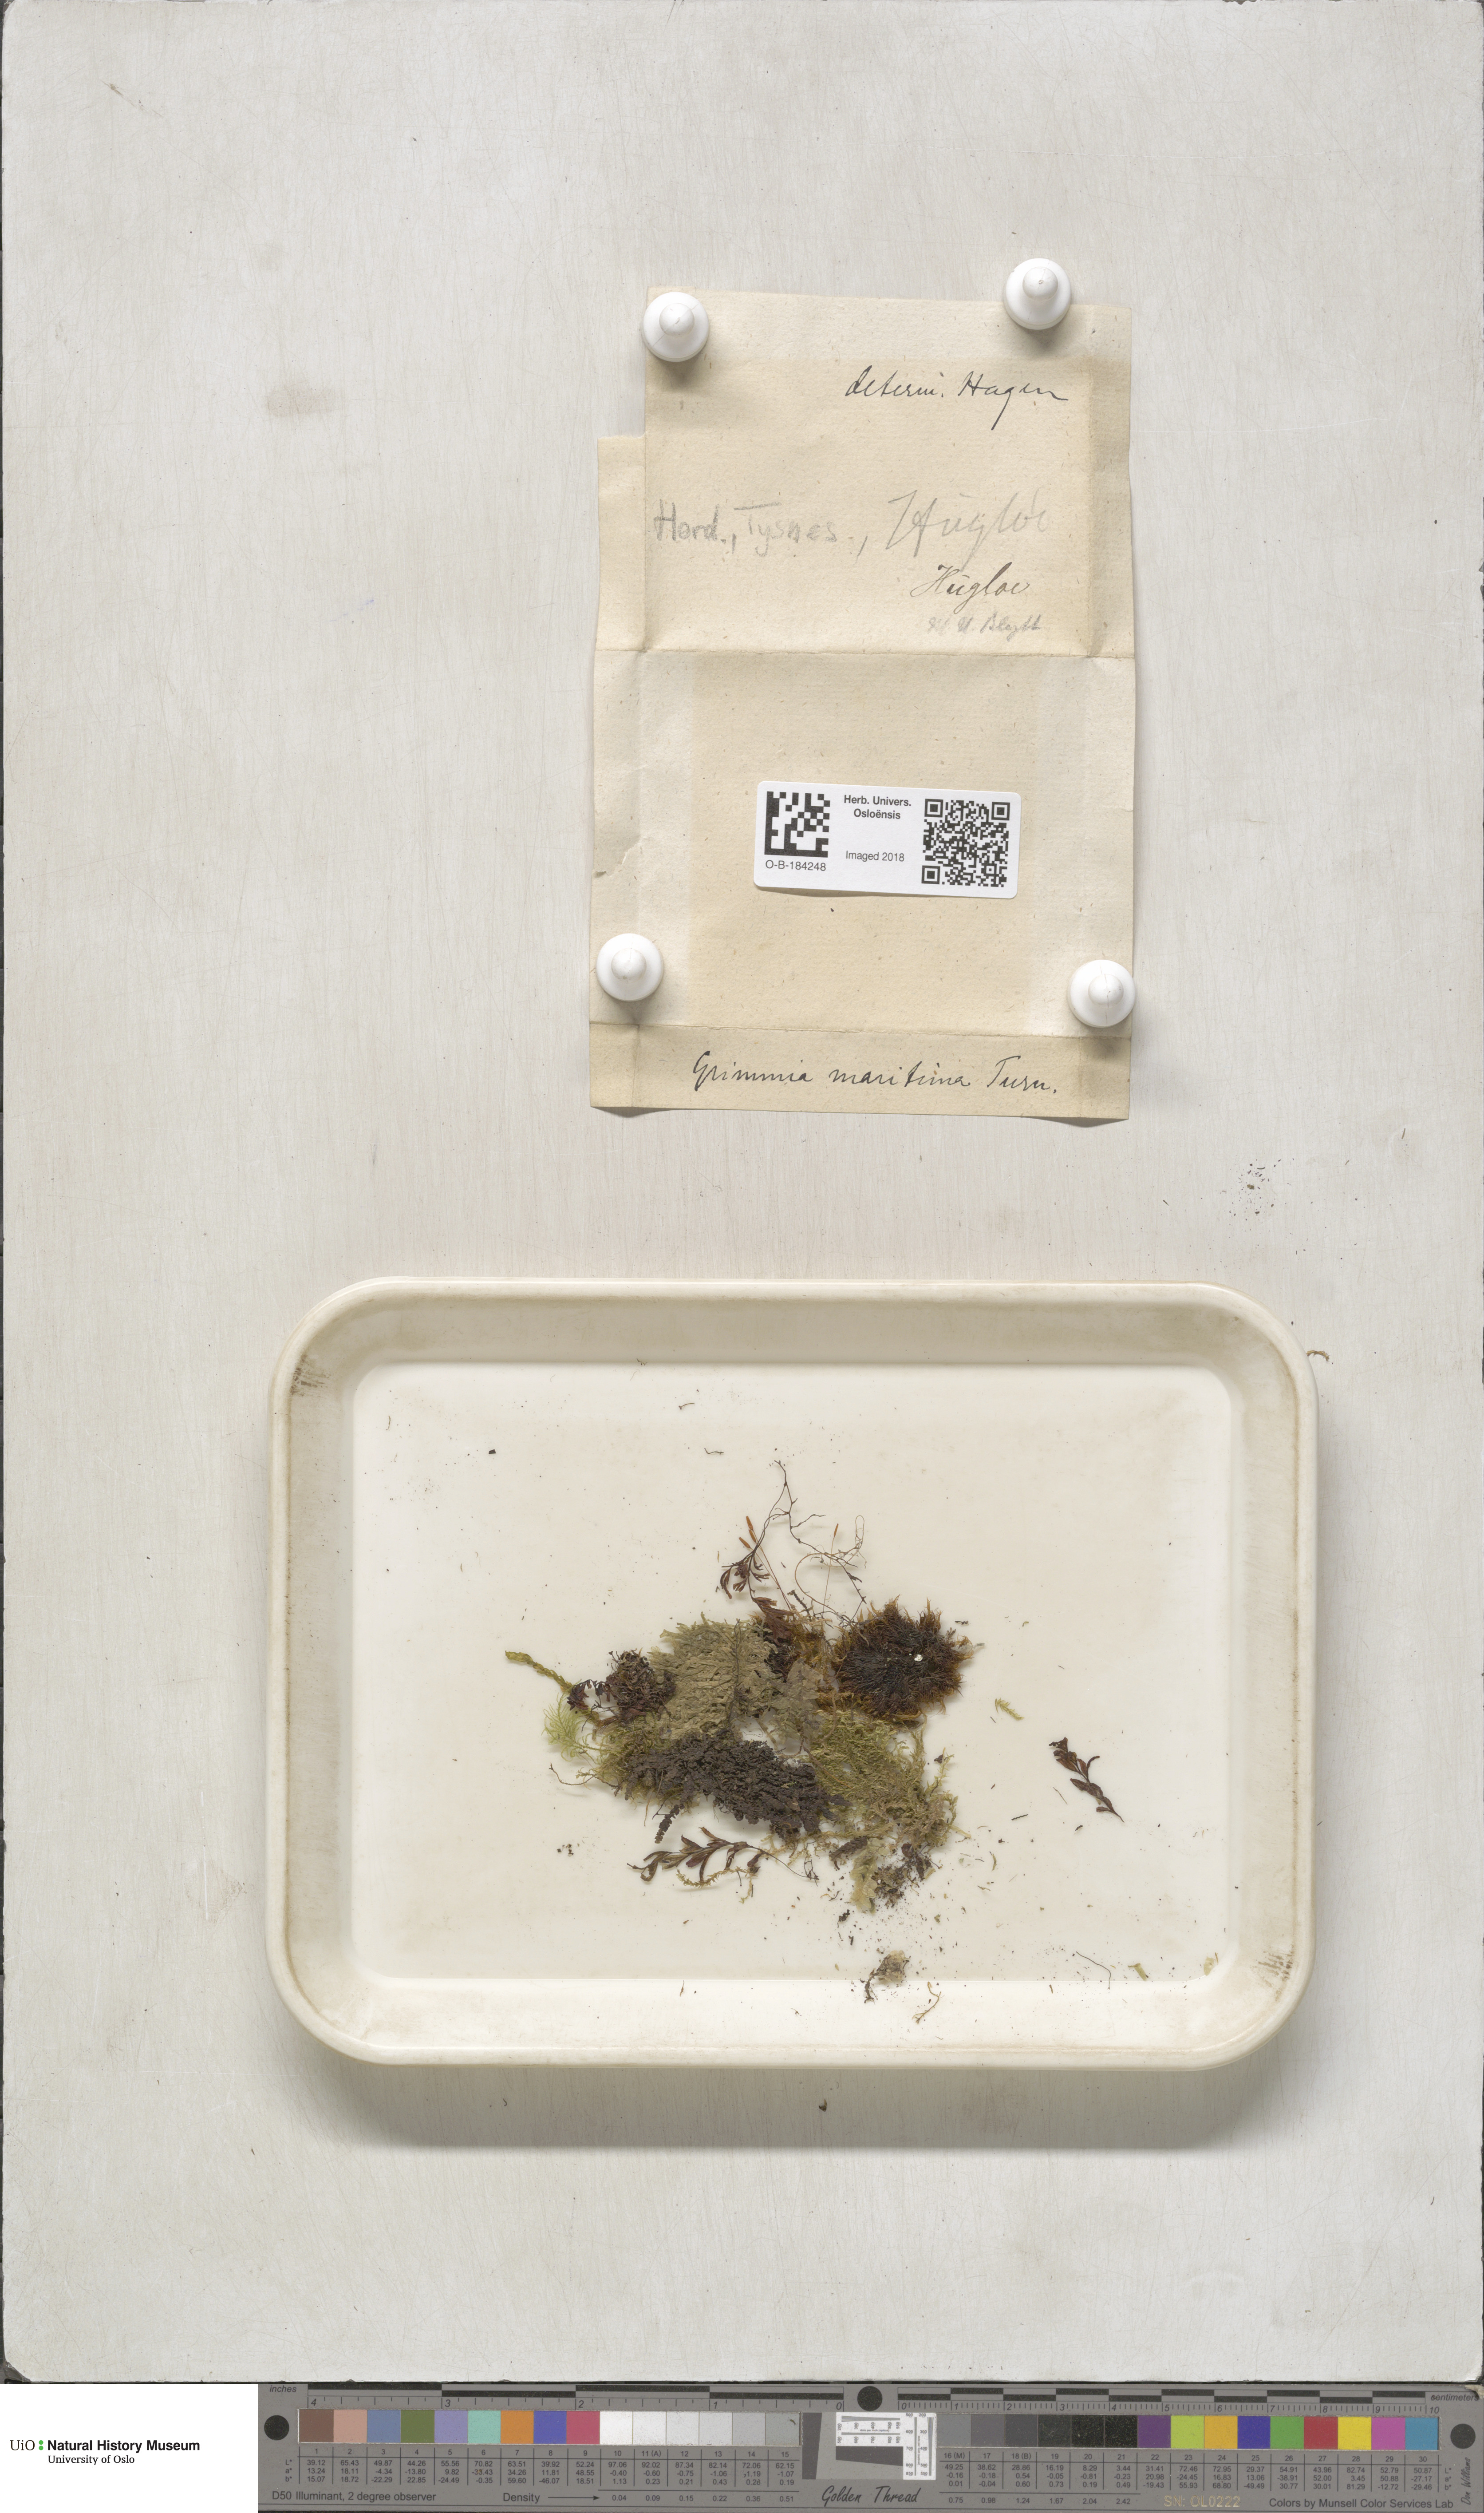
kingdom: Plantae
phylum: Bryophyta
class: Bryopsida
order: Grimmiales
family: Grimmiaceae
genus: Schistidium
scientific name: Schistidium maritimum
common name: Seaside bloom moss
